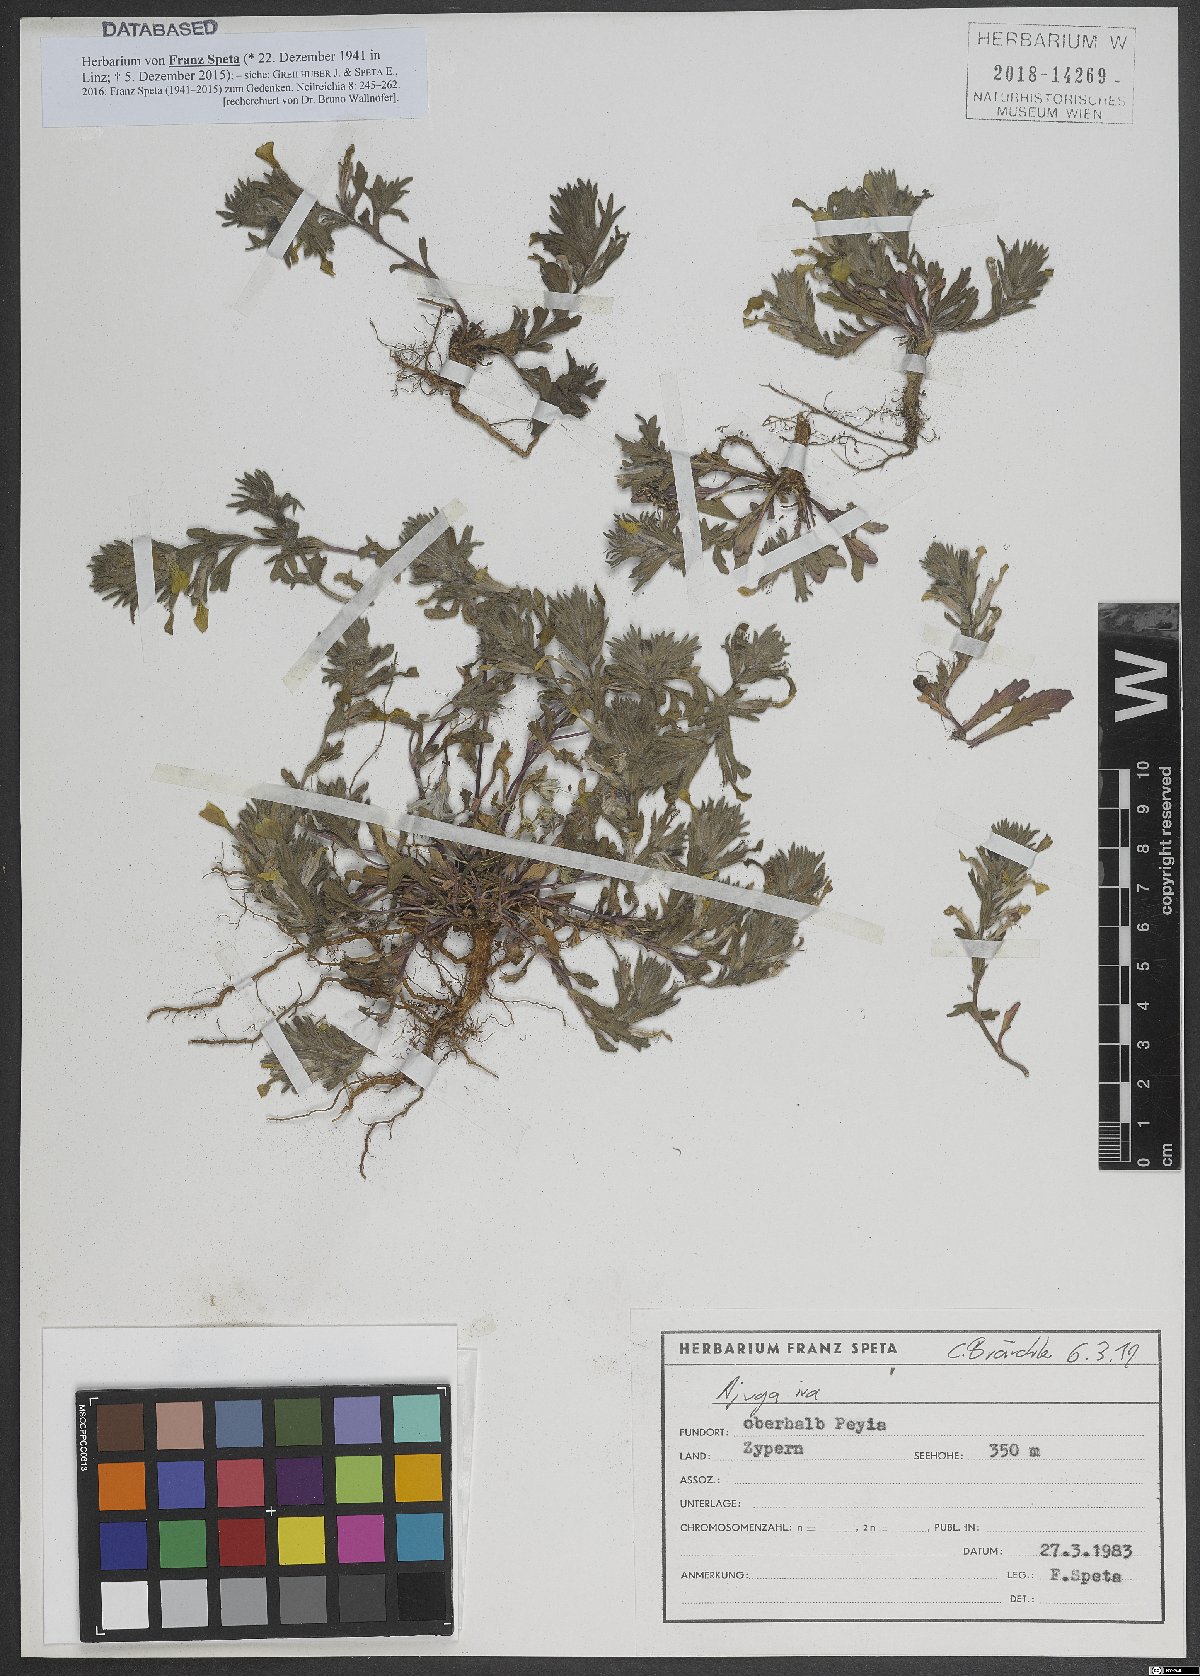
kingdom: Plantae
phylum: Tracheophyta
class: Magnoliopsida
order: Lamiales
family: Lamiaceae
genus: Ajuga
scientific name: Ajuga iva
